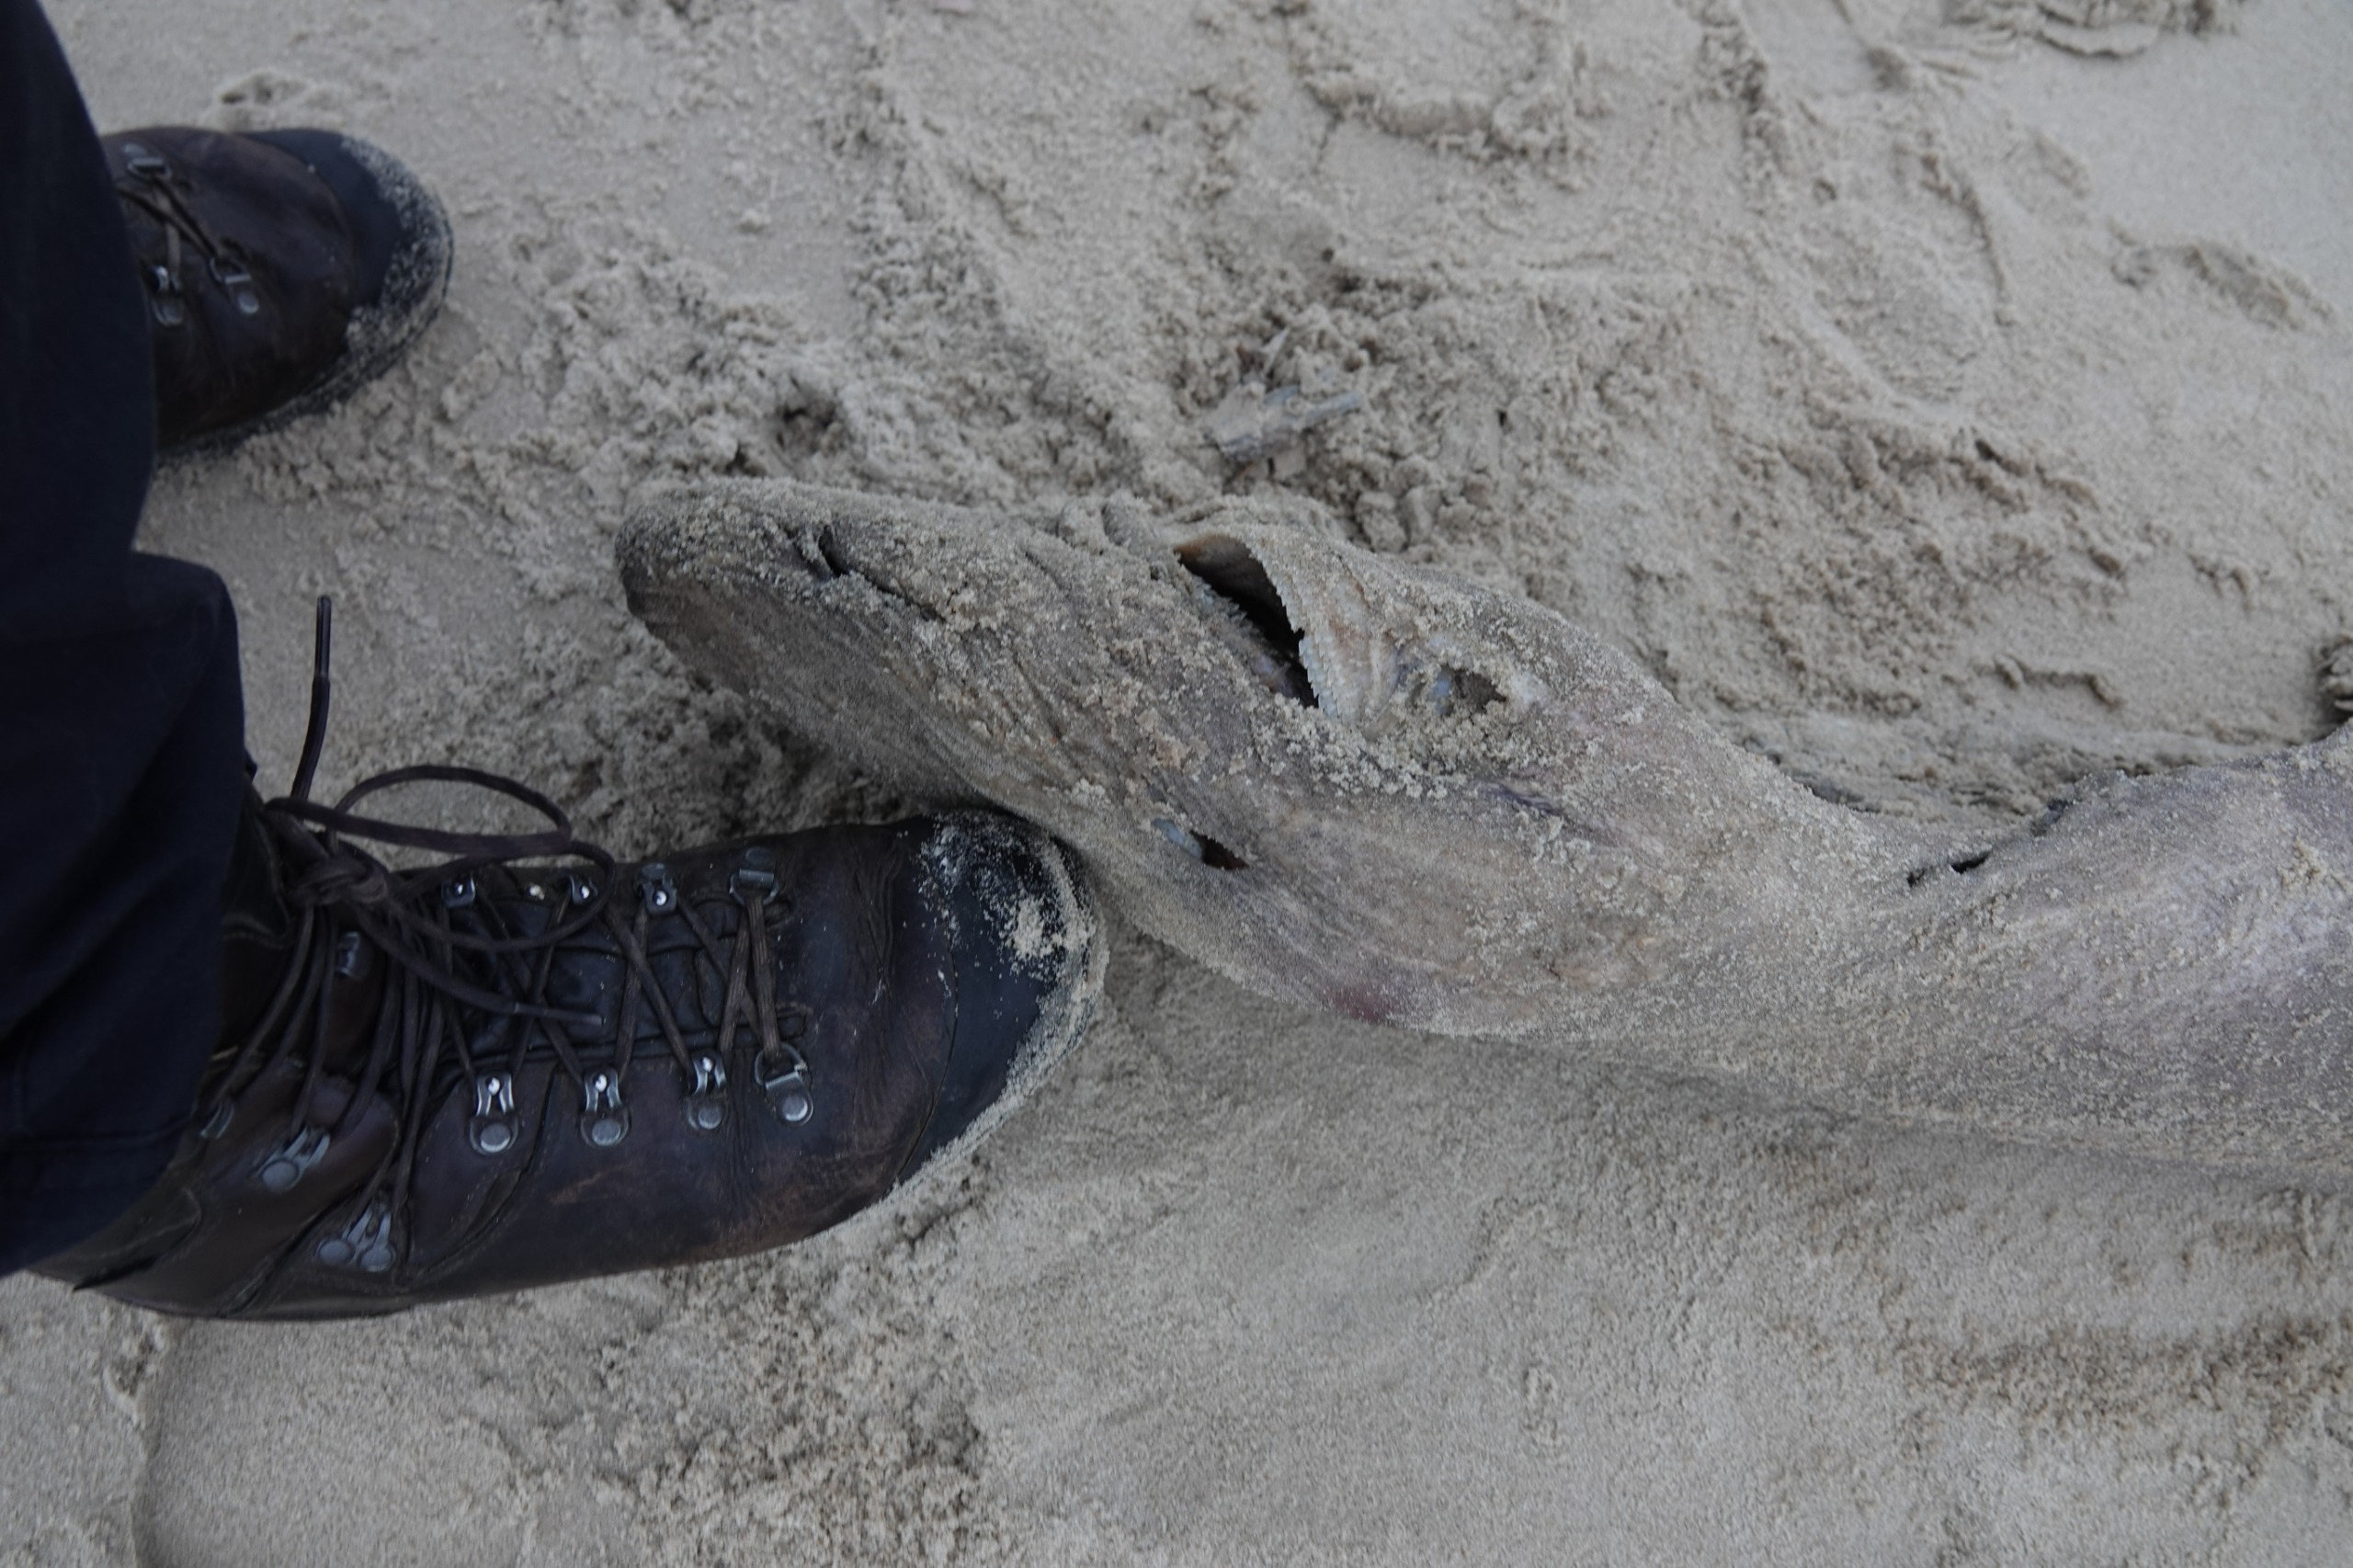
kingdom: Animalia
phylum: Chordata
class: Elasmobranchii
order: Squaliformes
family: Somniosidae
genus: Somniosus
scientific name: Somniosus microcephalus
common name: Grønlandshaj
